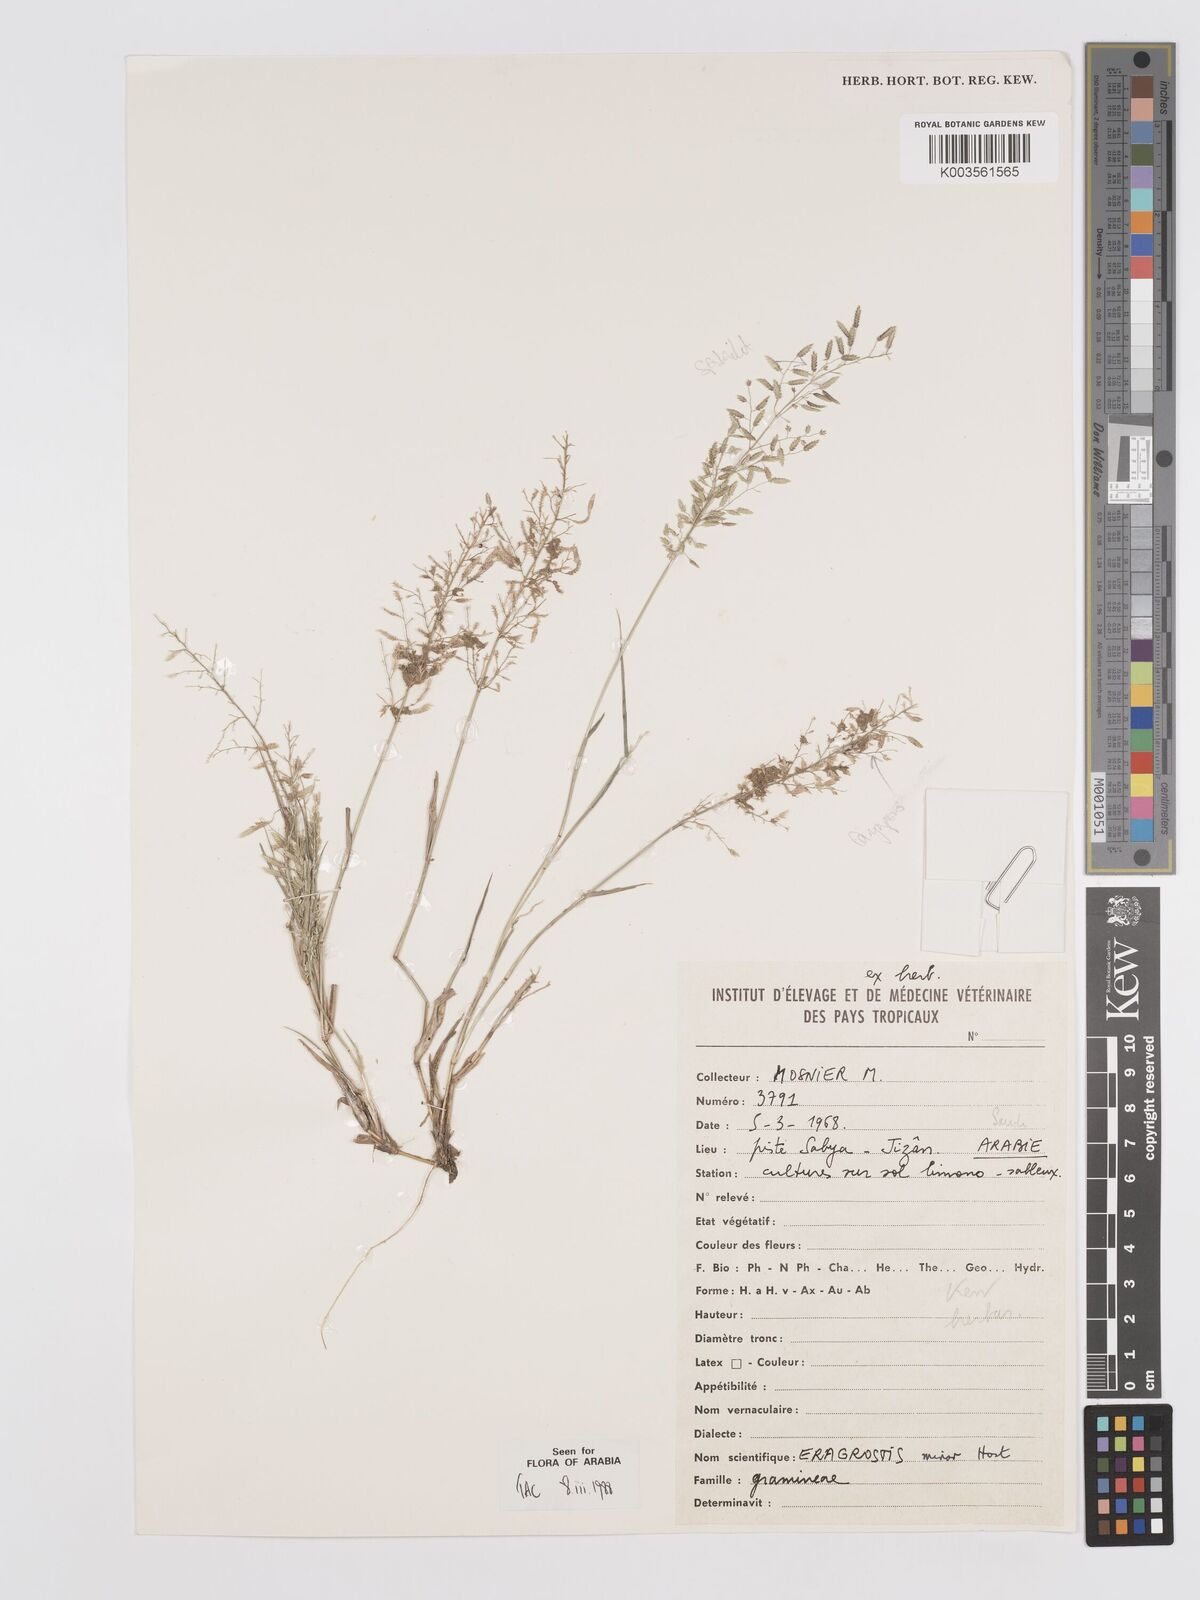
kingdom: Plantae
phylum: Tracheophyta
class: Liliopsida
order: Poales
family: Poaceae
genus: Eragrostis
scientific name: Eragrostis minor
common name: Small love-grass
